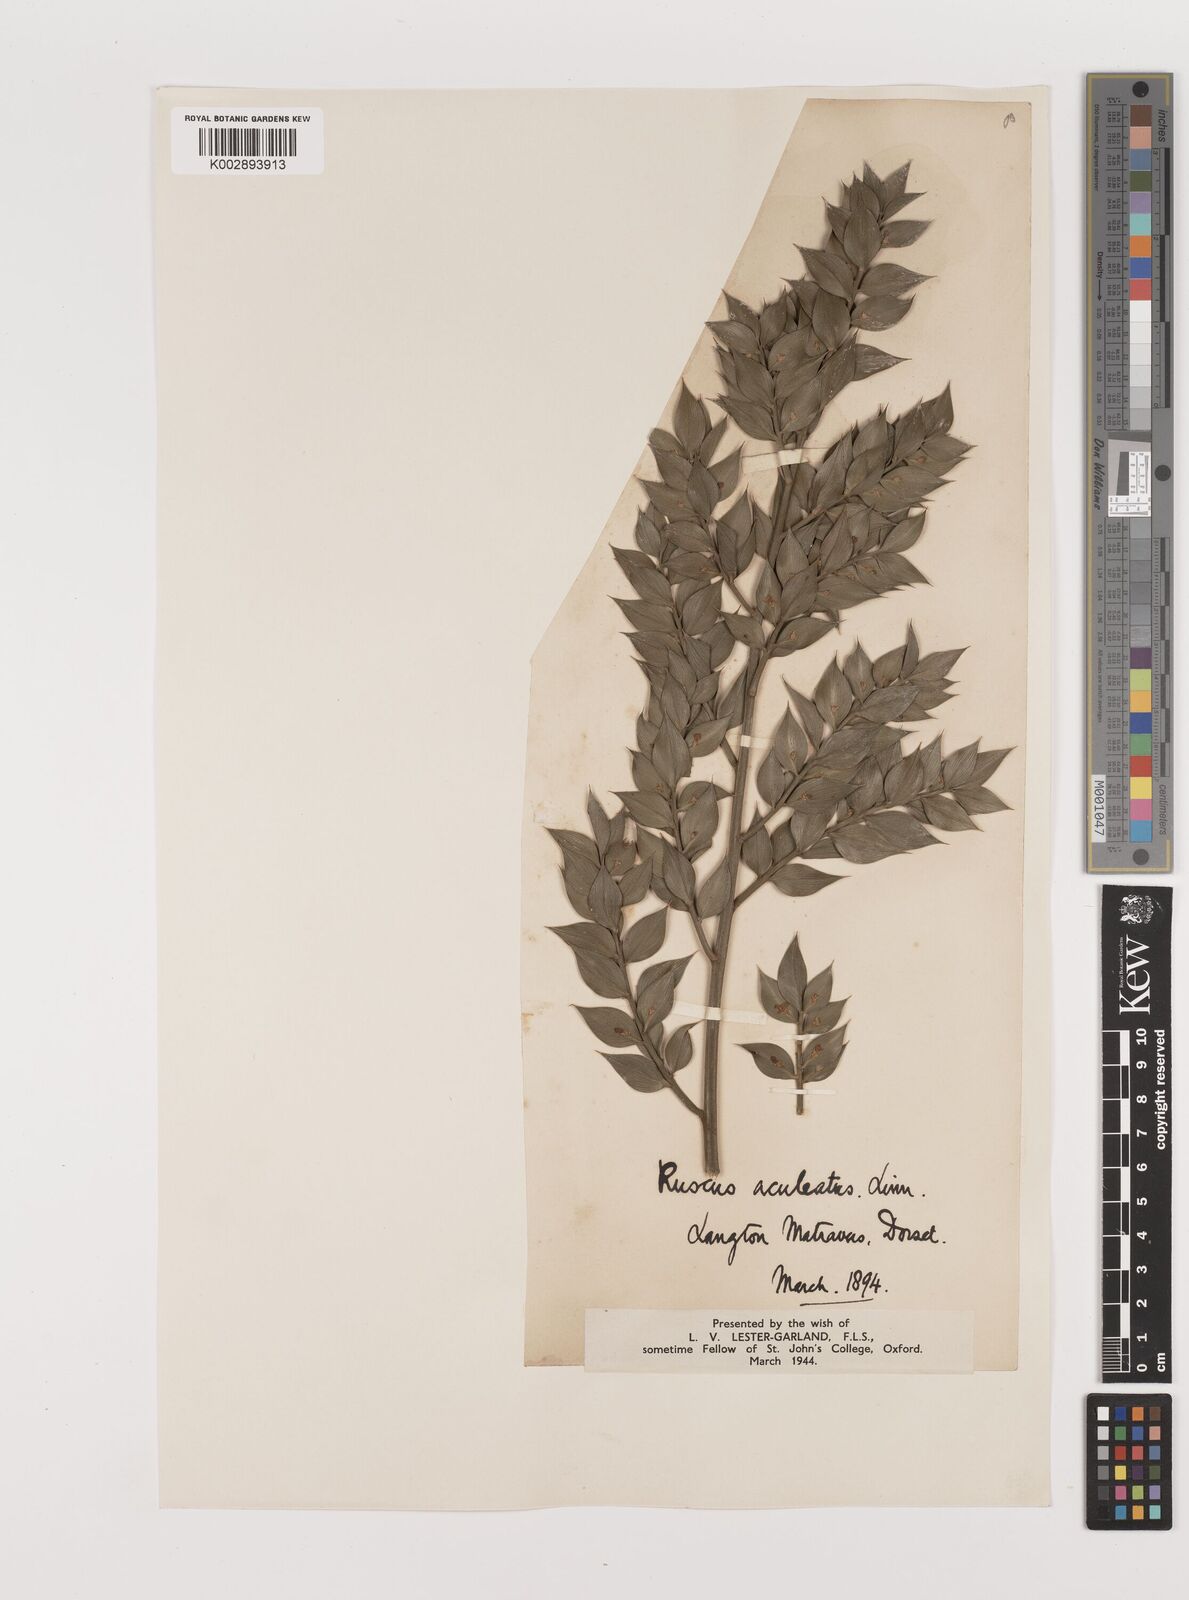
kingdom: Plantae
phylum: Tracheophyta
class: Liliopsida
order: Asparagales
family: Asparagaceae
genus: Ruscus
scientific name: Ruscus aculeatus
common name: Butcher's-broom
